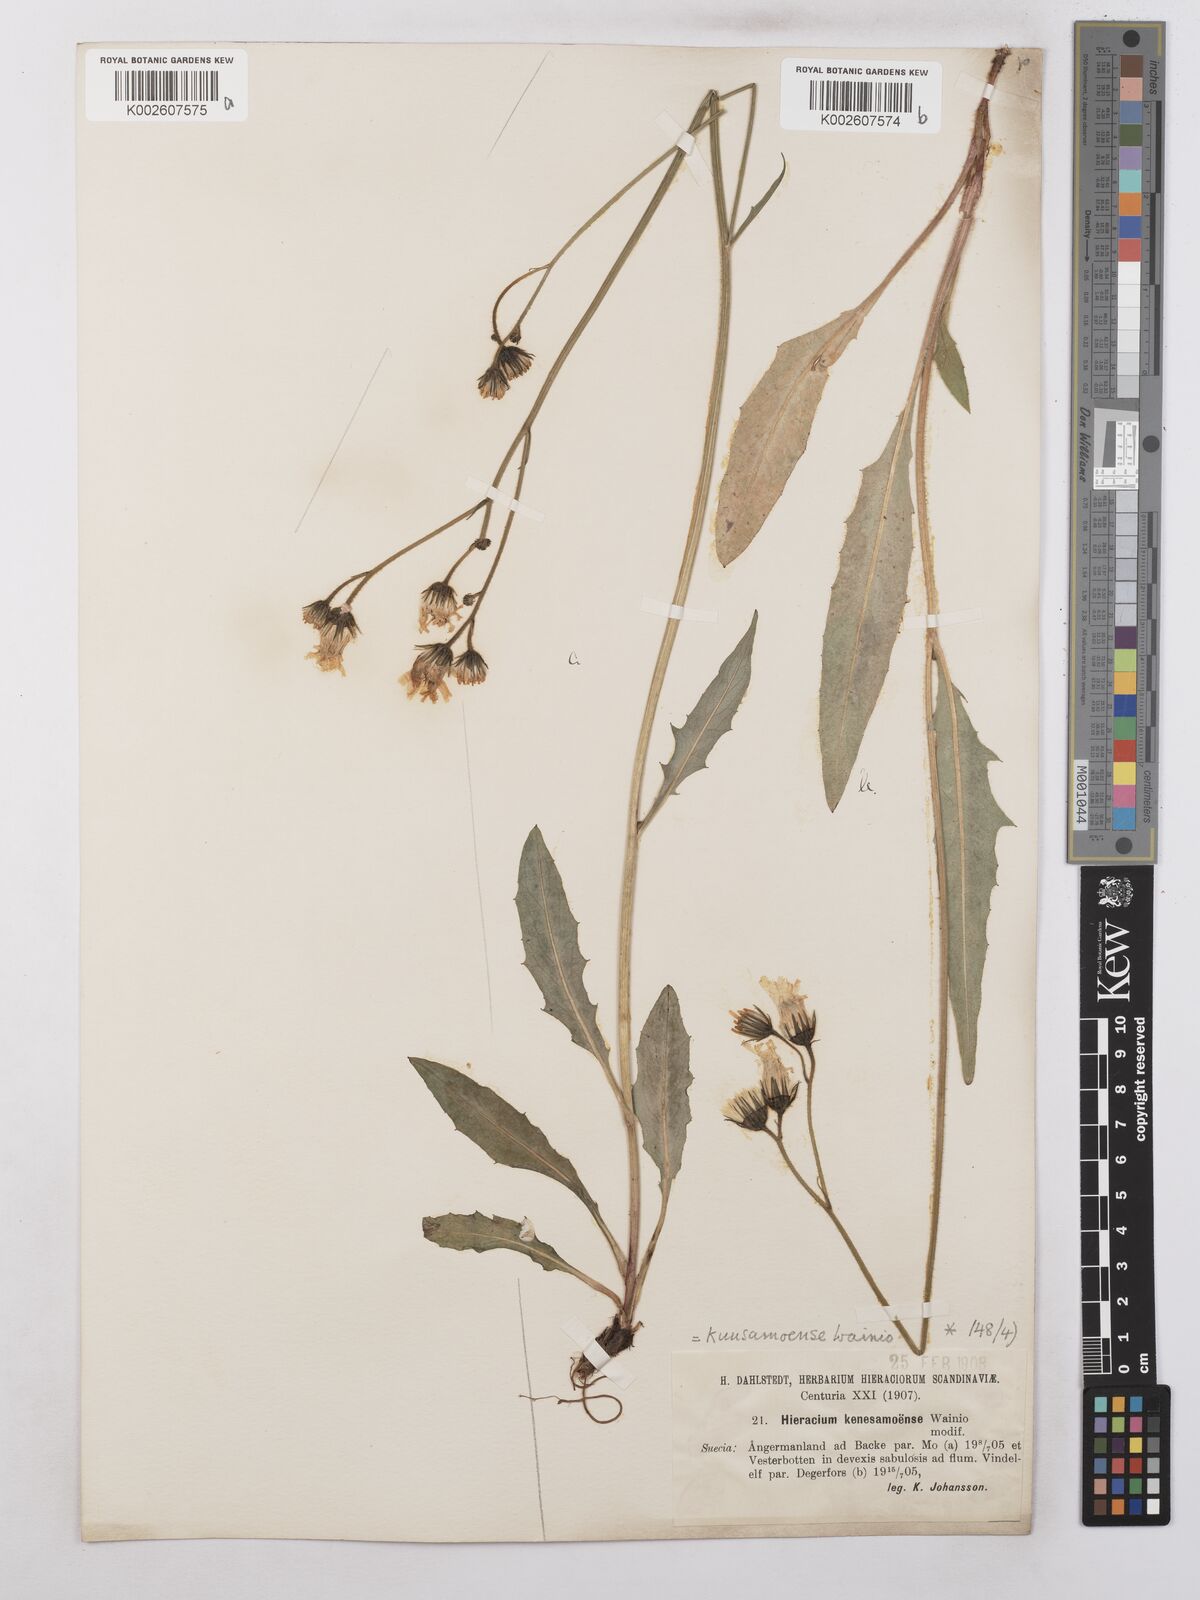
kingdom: Plantae
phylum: Tracheophyta
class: Magnoliopsida
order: Asterales
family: Asteraceae
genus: Hieracium
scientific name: Hieracium subramosum
